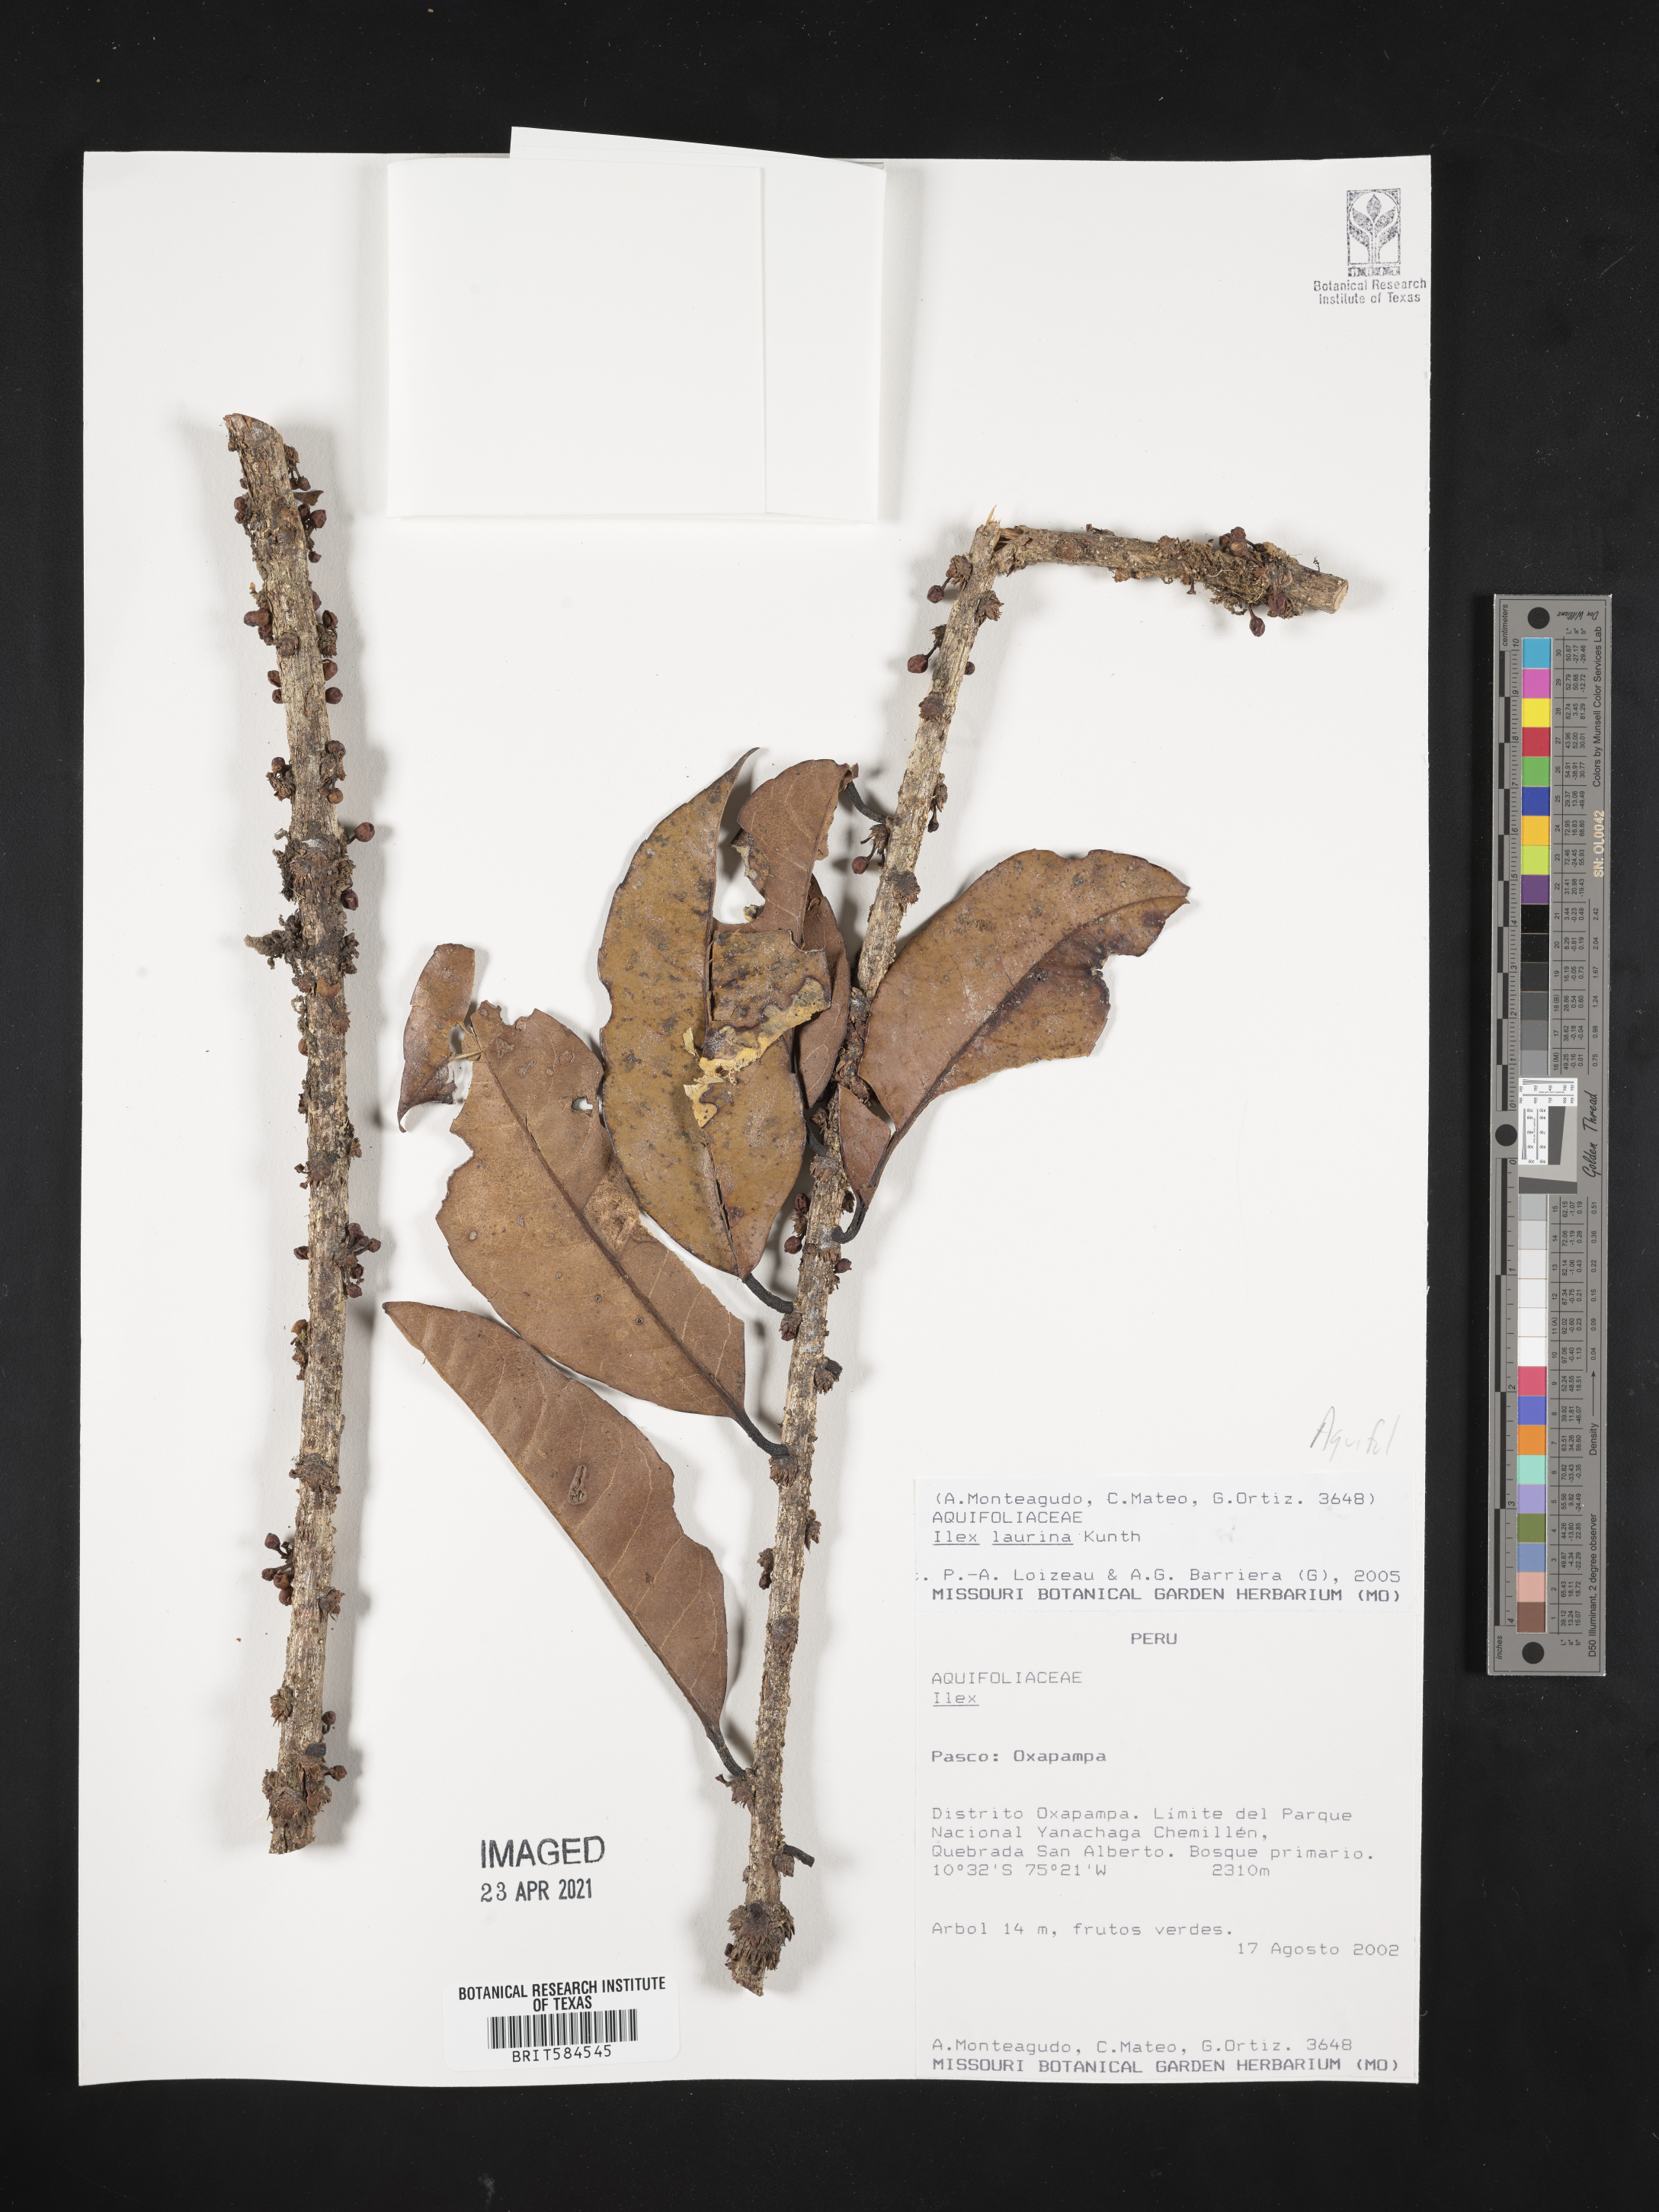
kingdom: Plantae
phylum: Tracheophyta
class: Magnoliopsida
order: Aquifoliales
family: Aquifoliaceae
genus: Ilex
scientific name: Ilex laurina
